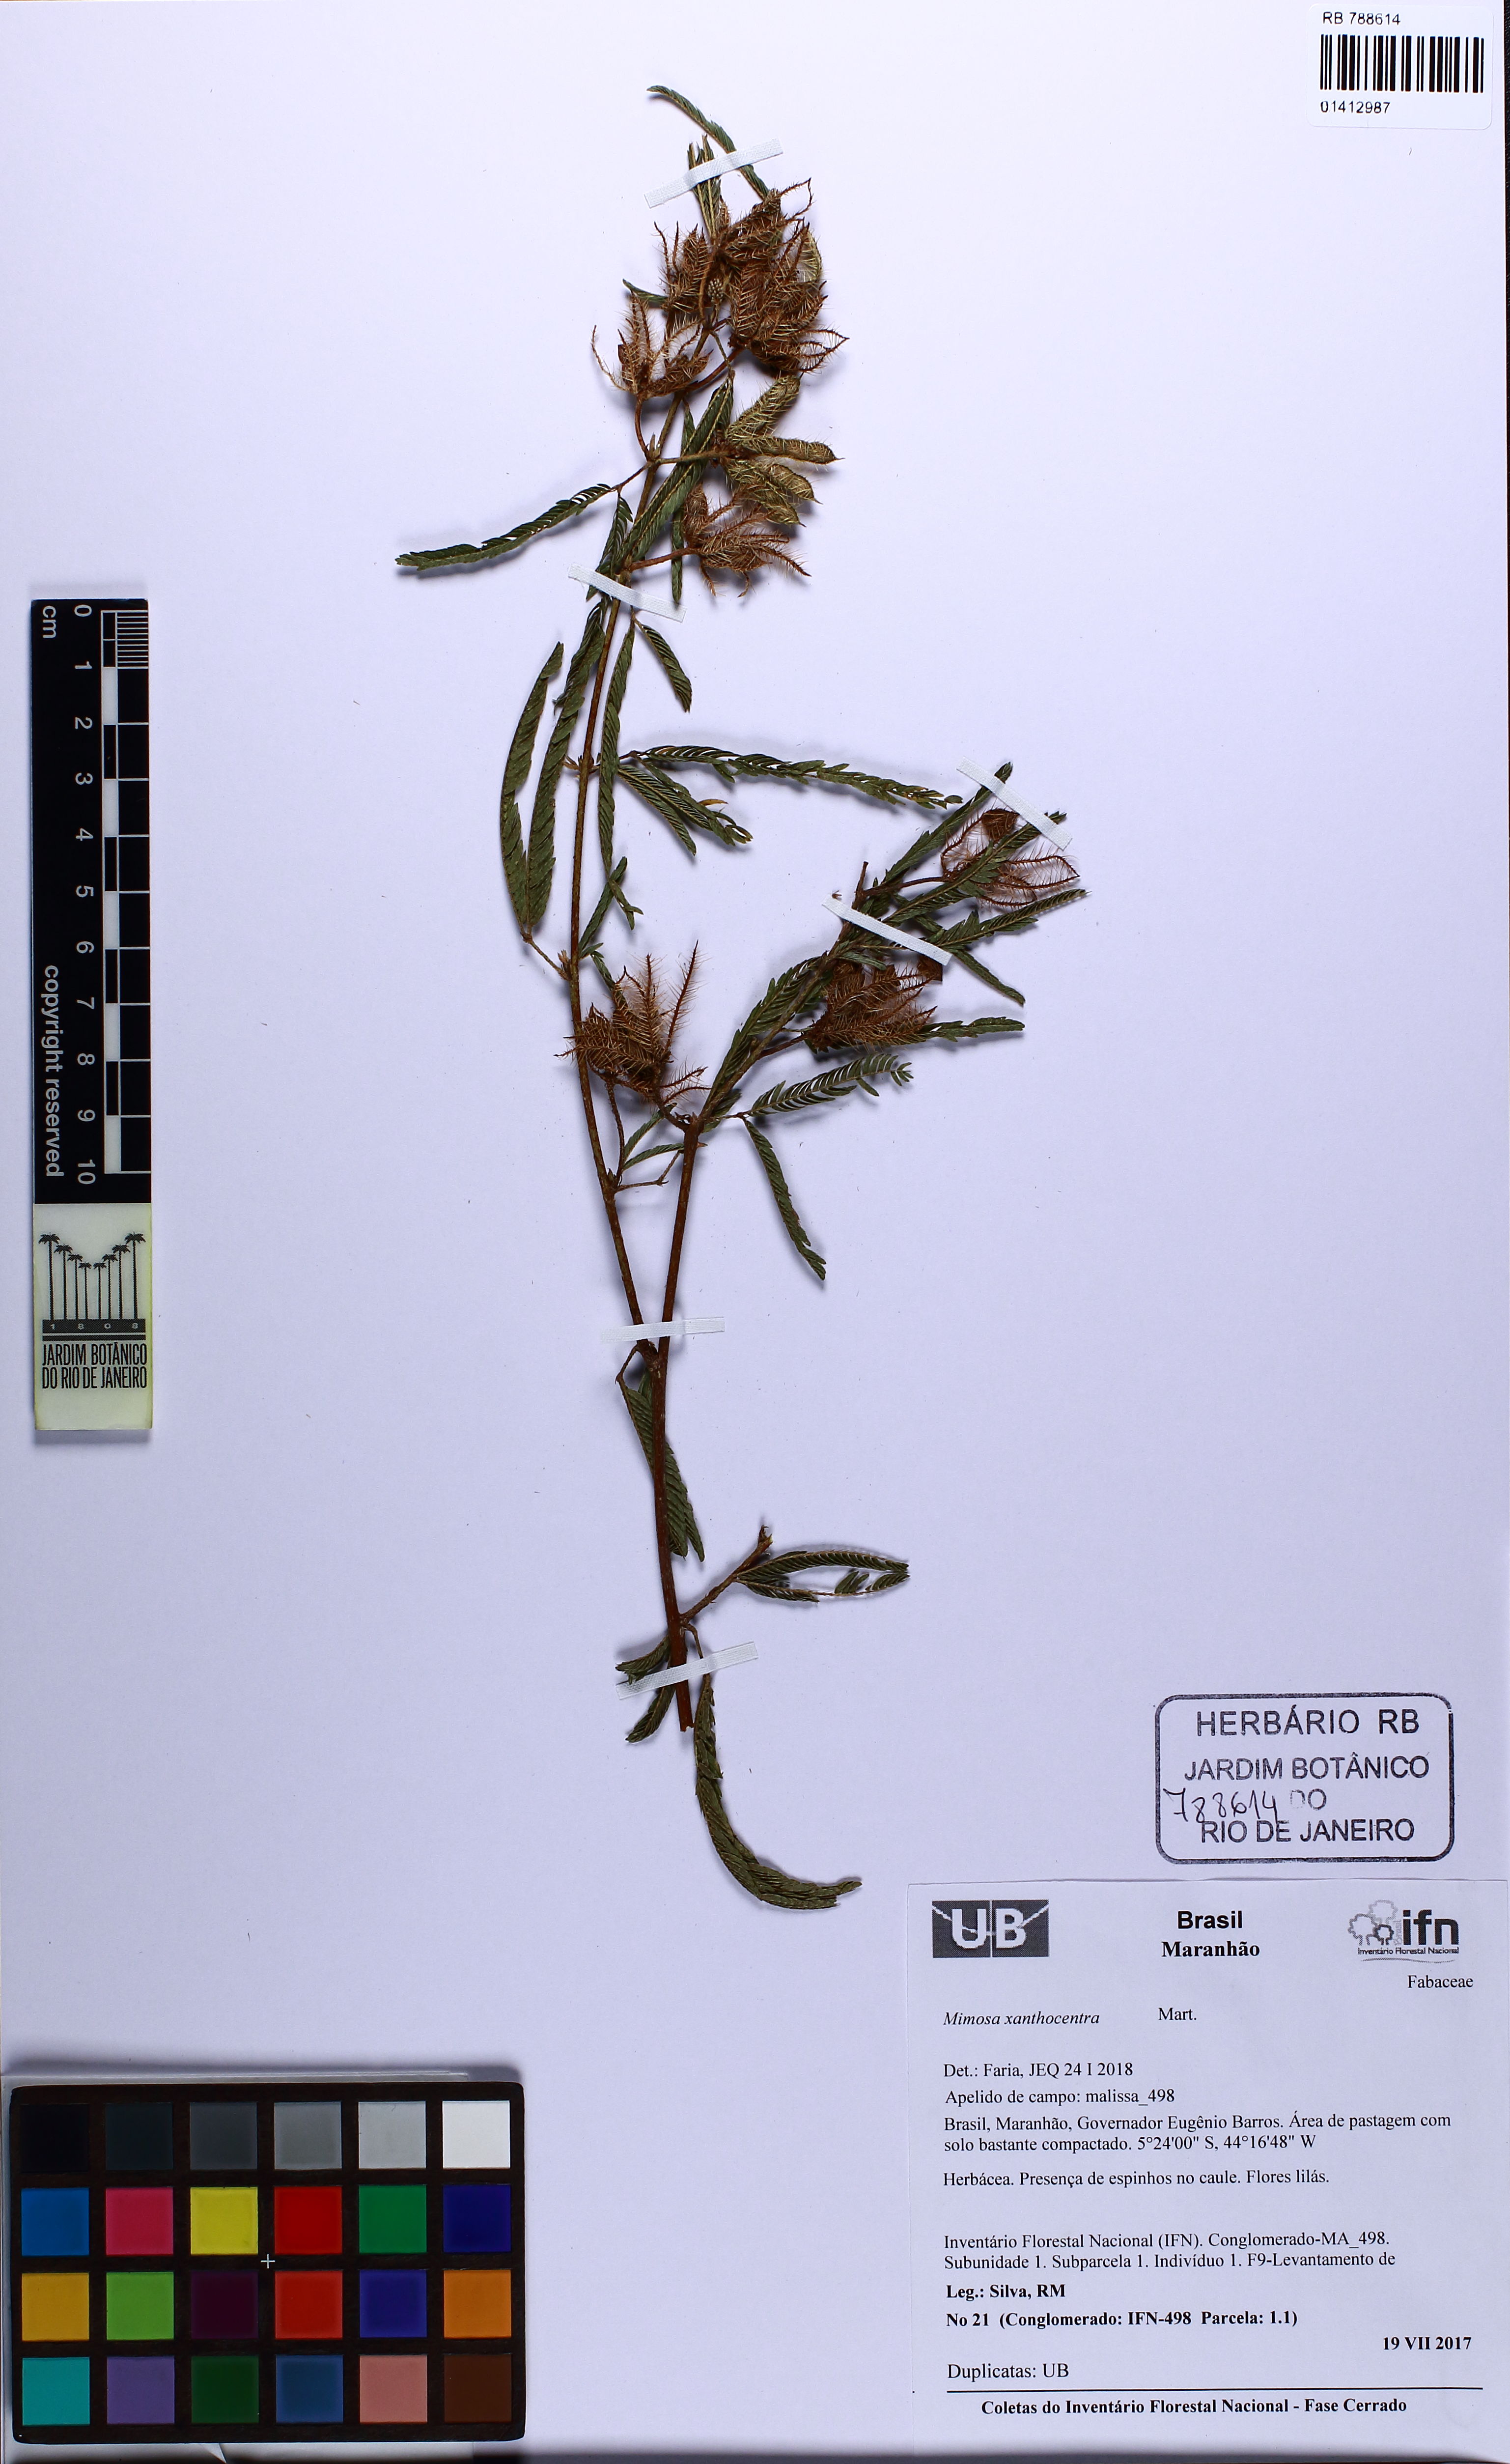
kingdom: Plantae
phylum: Tracheophyta
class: Magnoliopsida
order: Fabales
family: Fabaceae
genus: Mimosa
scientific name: Mimosa xanthocentra
